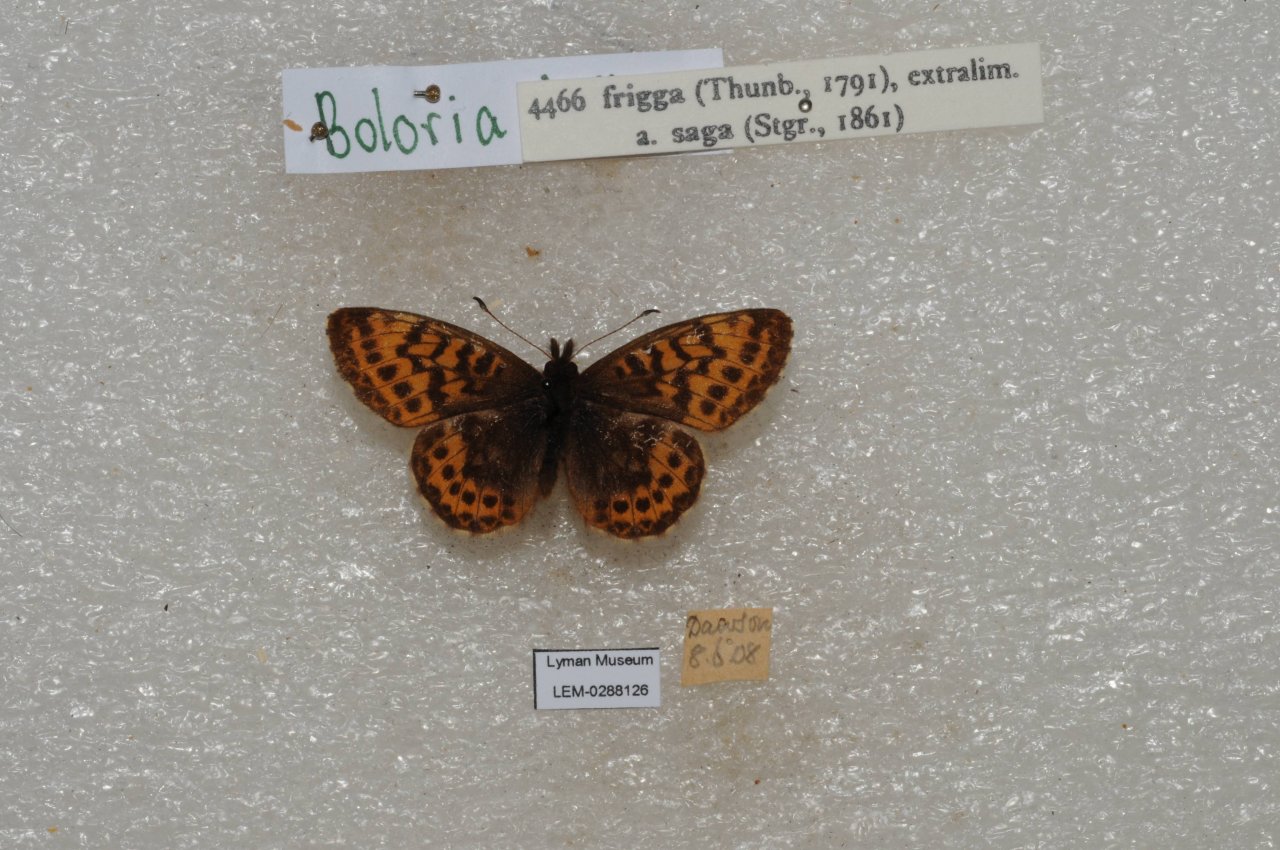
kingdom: Animalia
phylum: Arthropoda
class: Insecta
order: Lepidoptera
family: Nymphalidae
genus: Boloria
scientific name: Boloria frigga
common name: Frigga Fritillary
